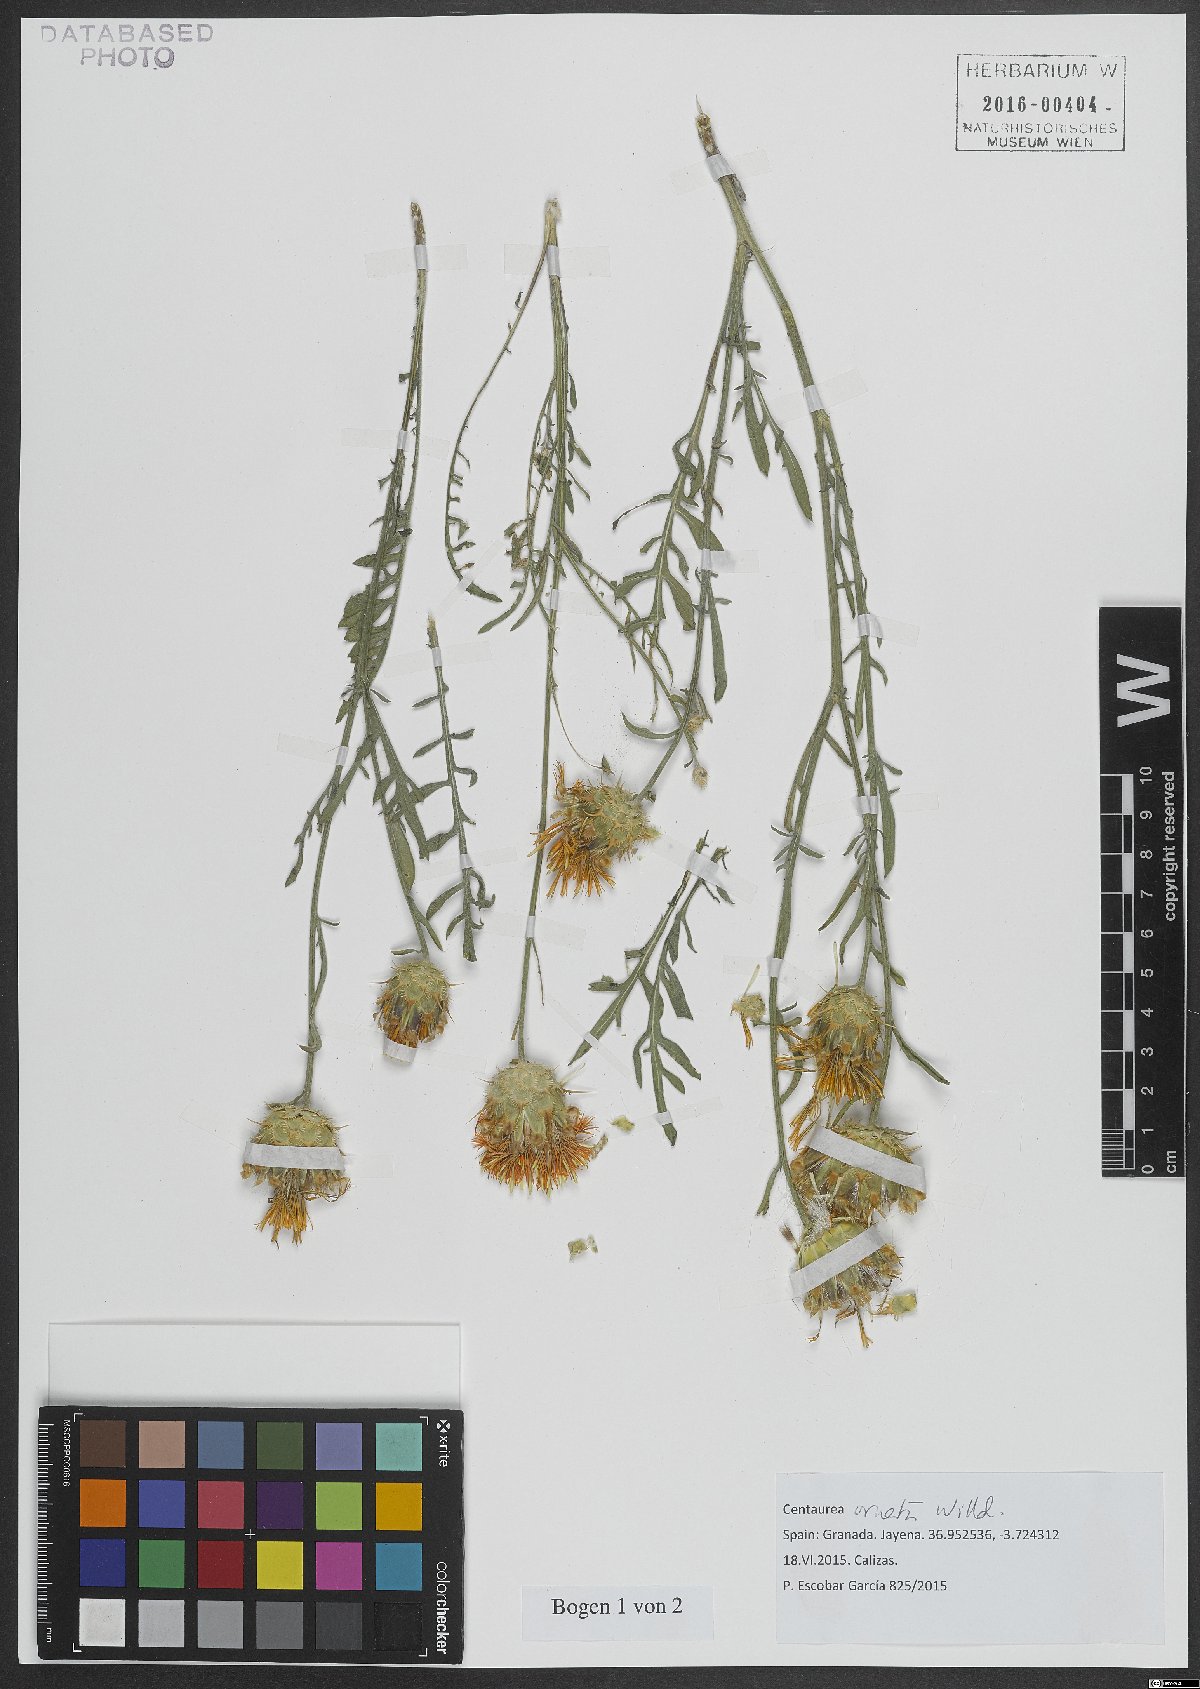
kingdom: Plantae
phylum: Tracheophyta
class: Magnoliopsida
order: Asterales
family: Asteraceae
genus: Centaurea
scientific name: Centaurea ornata
